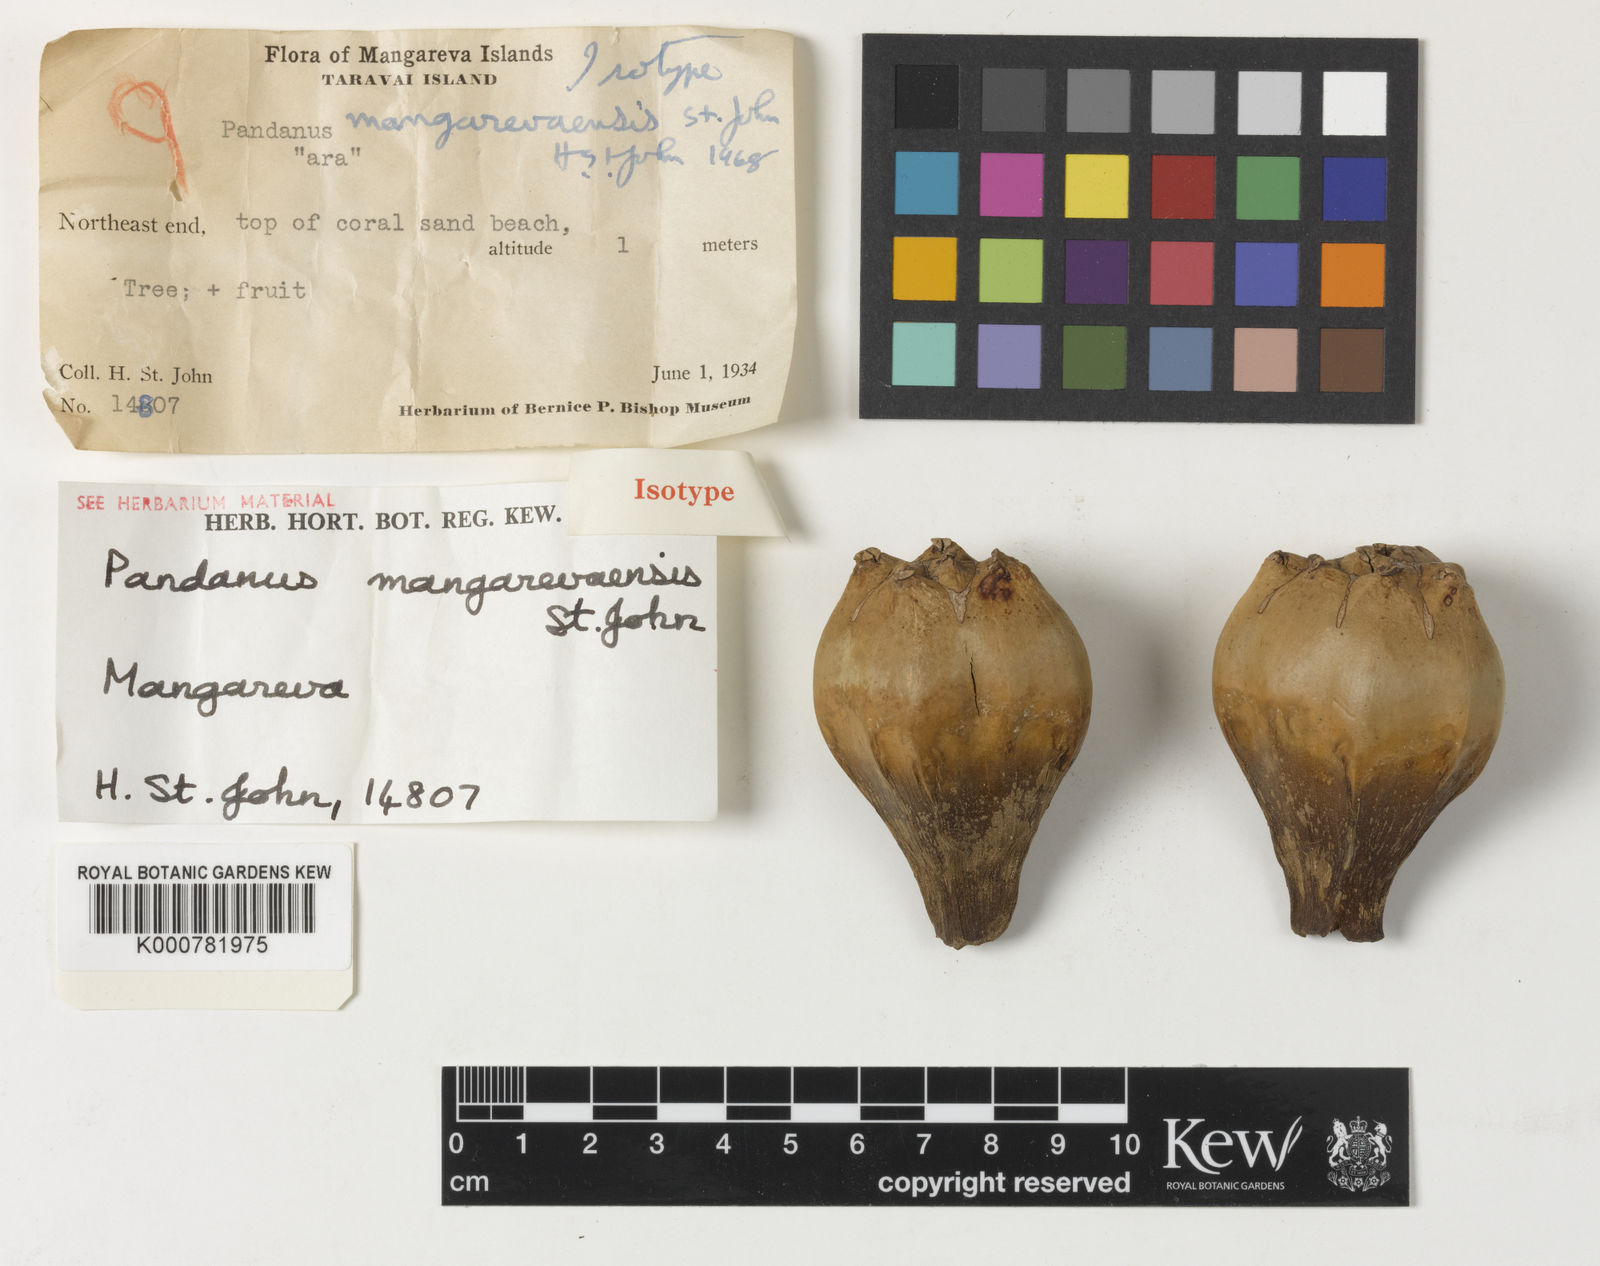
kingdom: Plantae
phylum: Tracheophyta
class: Liliopsida
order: Pandanales
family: Pandanaceae
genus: Pandanus
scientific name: Pandanus tectorius
